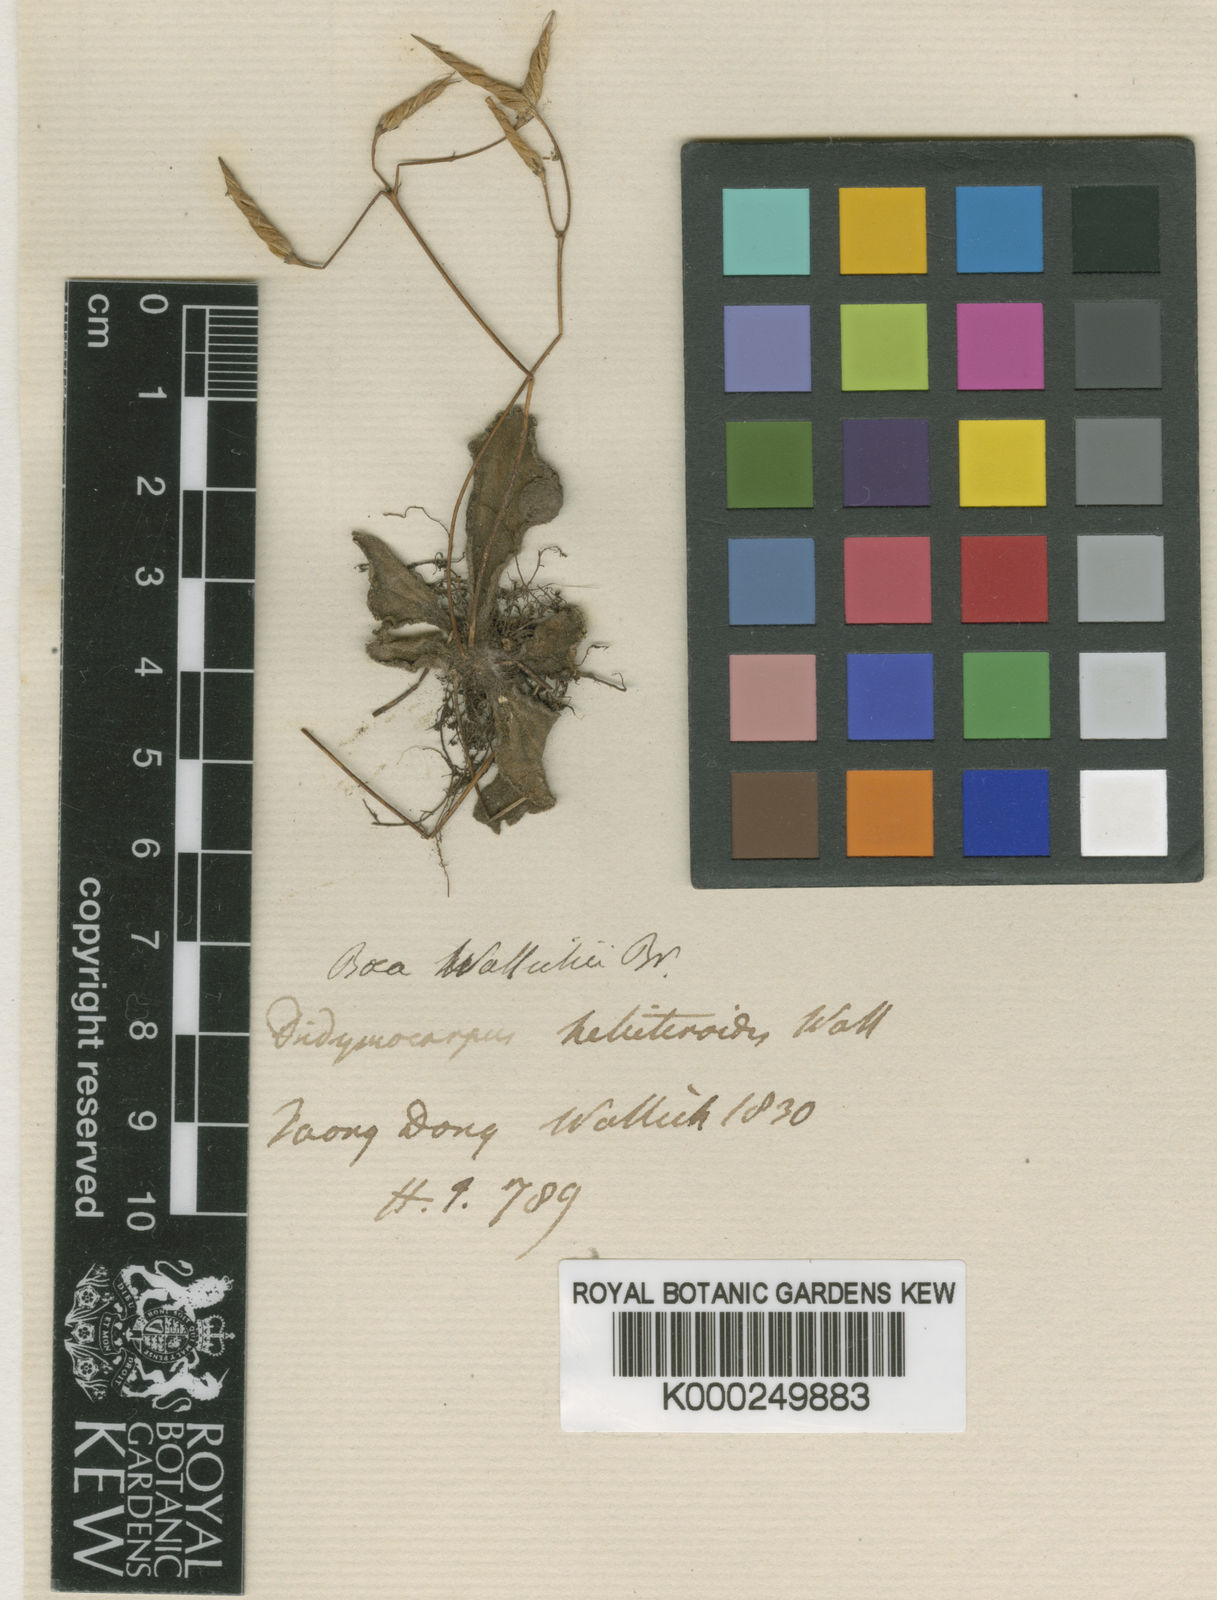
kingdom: Plantae
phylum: Tracheophyta
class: Magnoliopsida
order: Lamiales
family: Gesneriaceae
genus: Dorcoceras
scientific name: Dorcoceras wallichii
